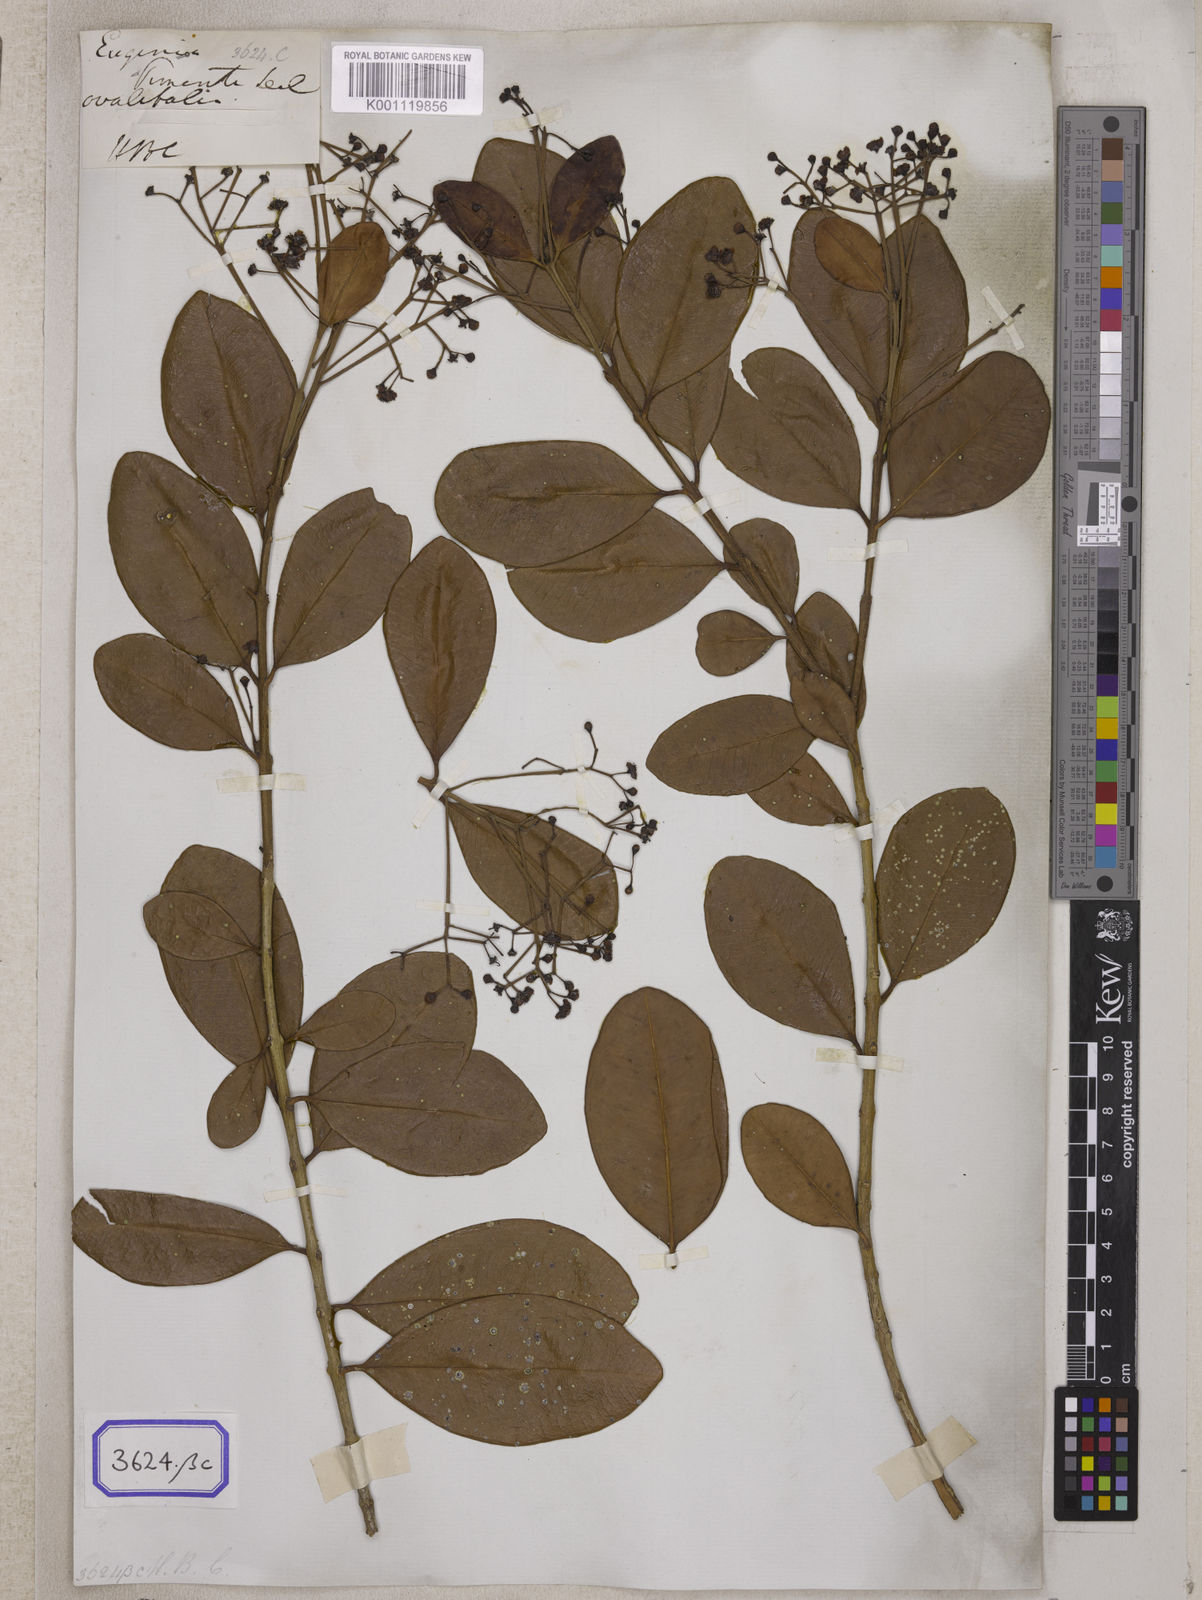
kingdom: Plantae
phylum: Tracheophyta
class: Magnoliopsida
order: Myrtales
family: Myrtaceae
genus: Pimenta
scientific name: Pimenta dioica
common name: Allspice
